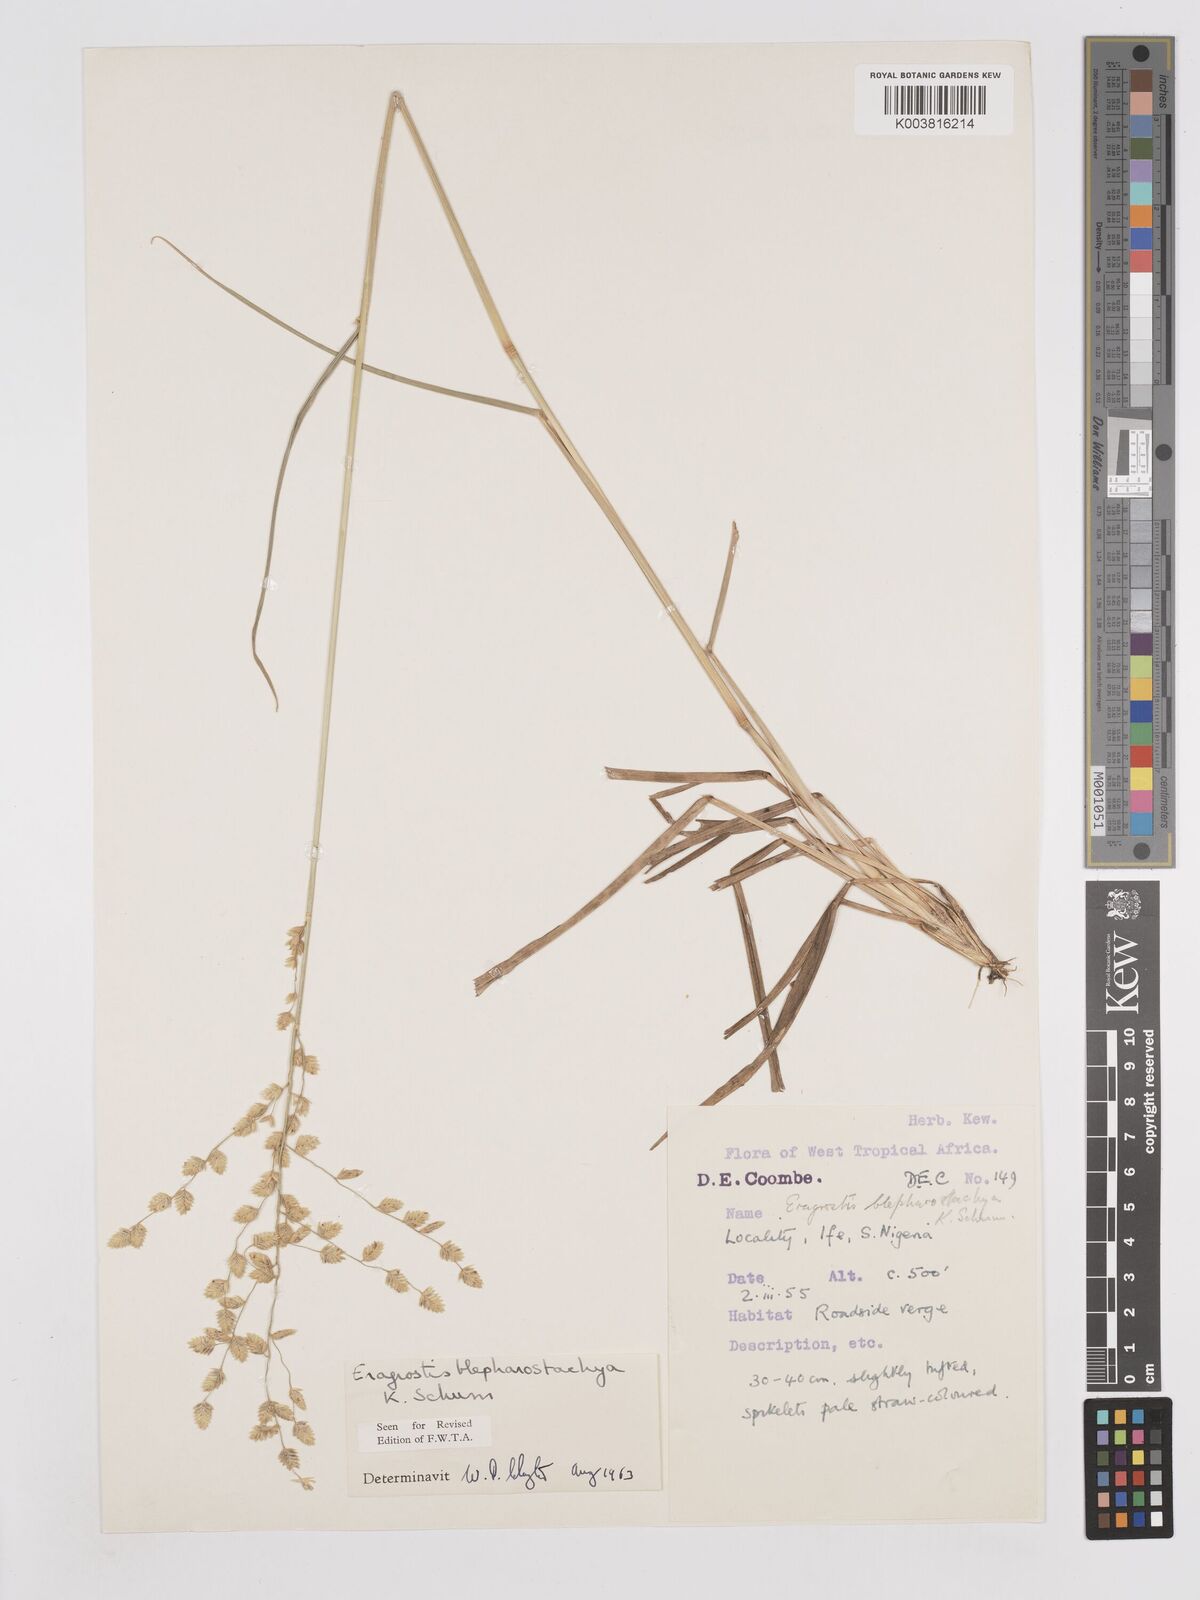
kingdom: Plantae
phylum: Tracheophyta
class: Liliopsida
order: Poales
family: Poaceae
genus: Eragrostis
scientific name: Eragrostis blepharostachya
